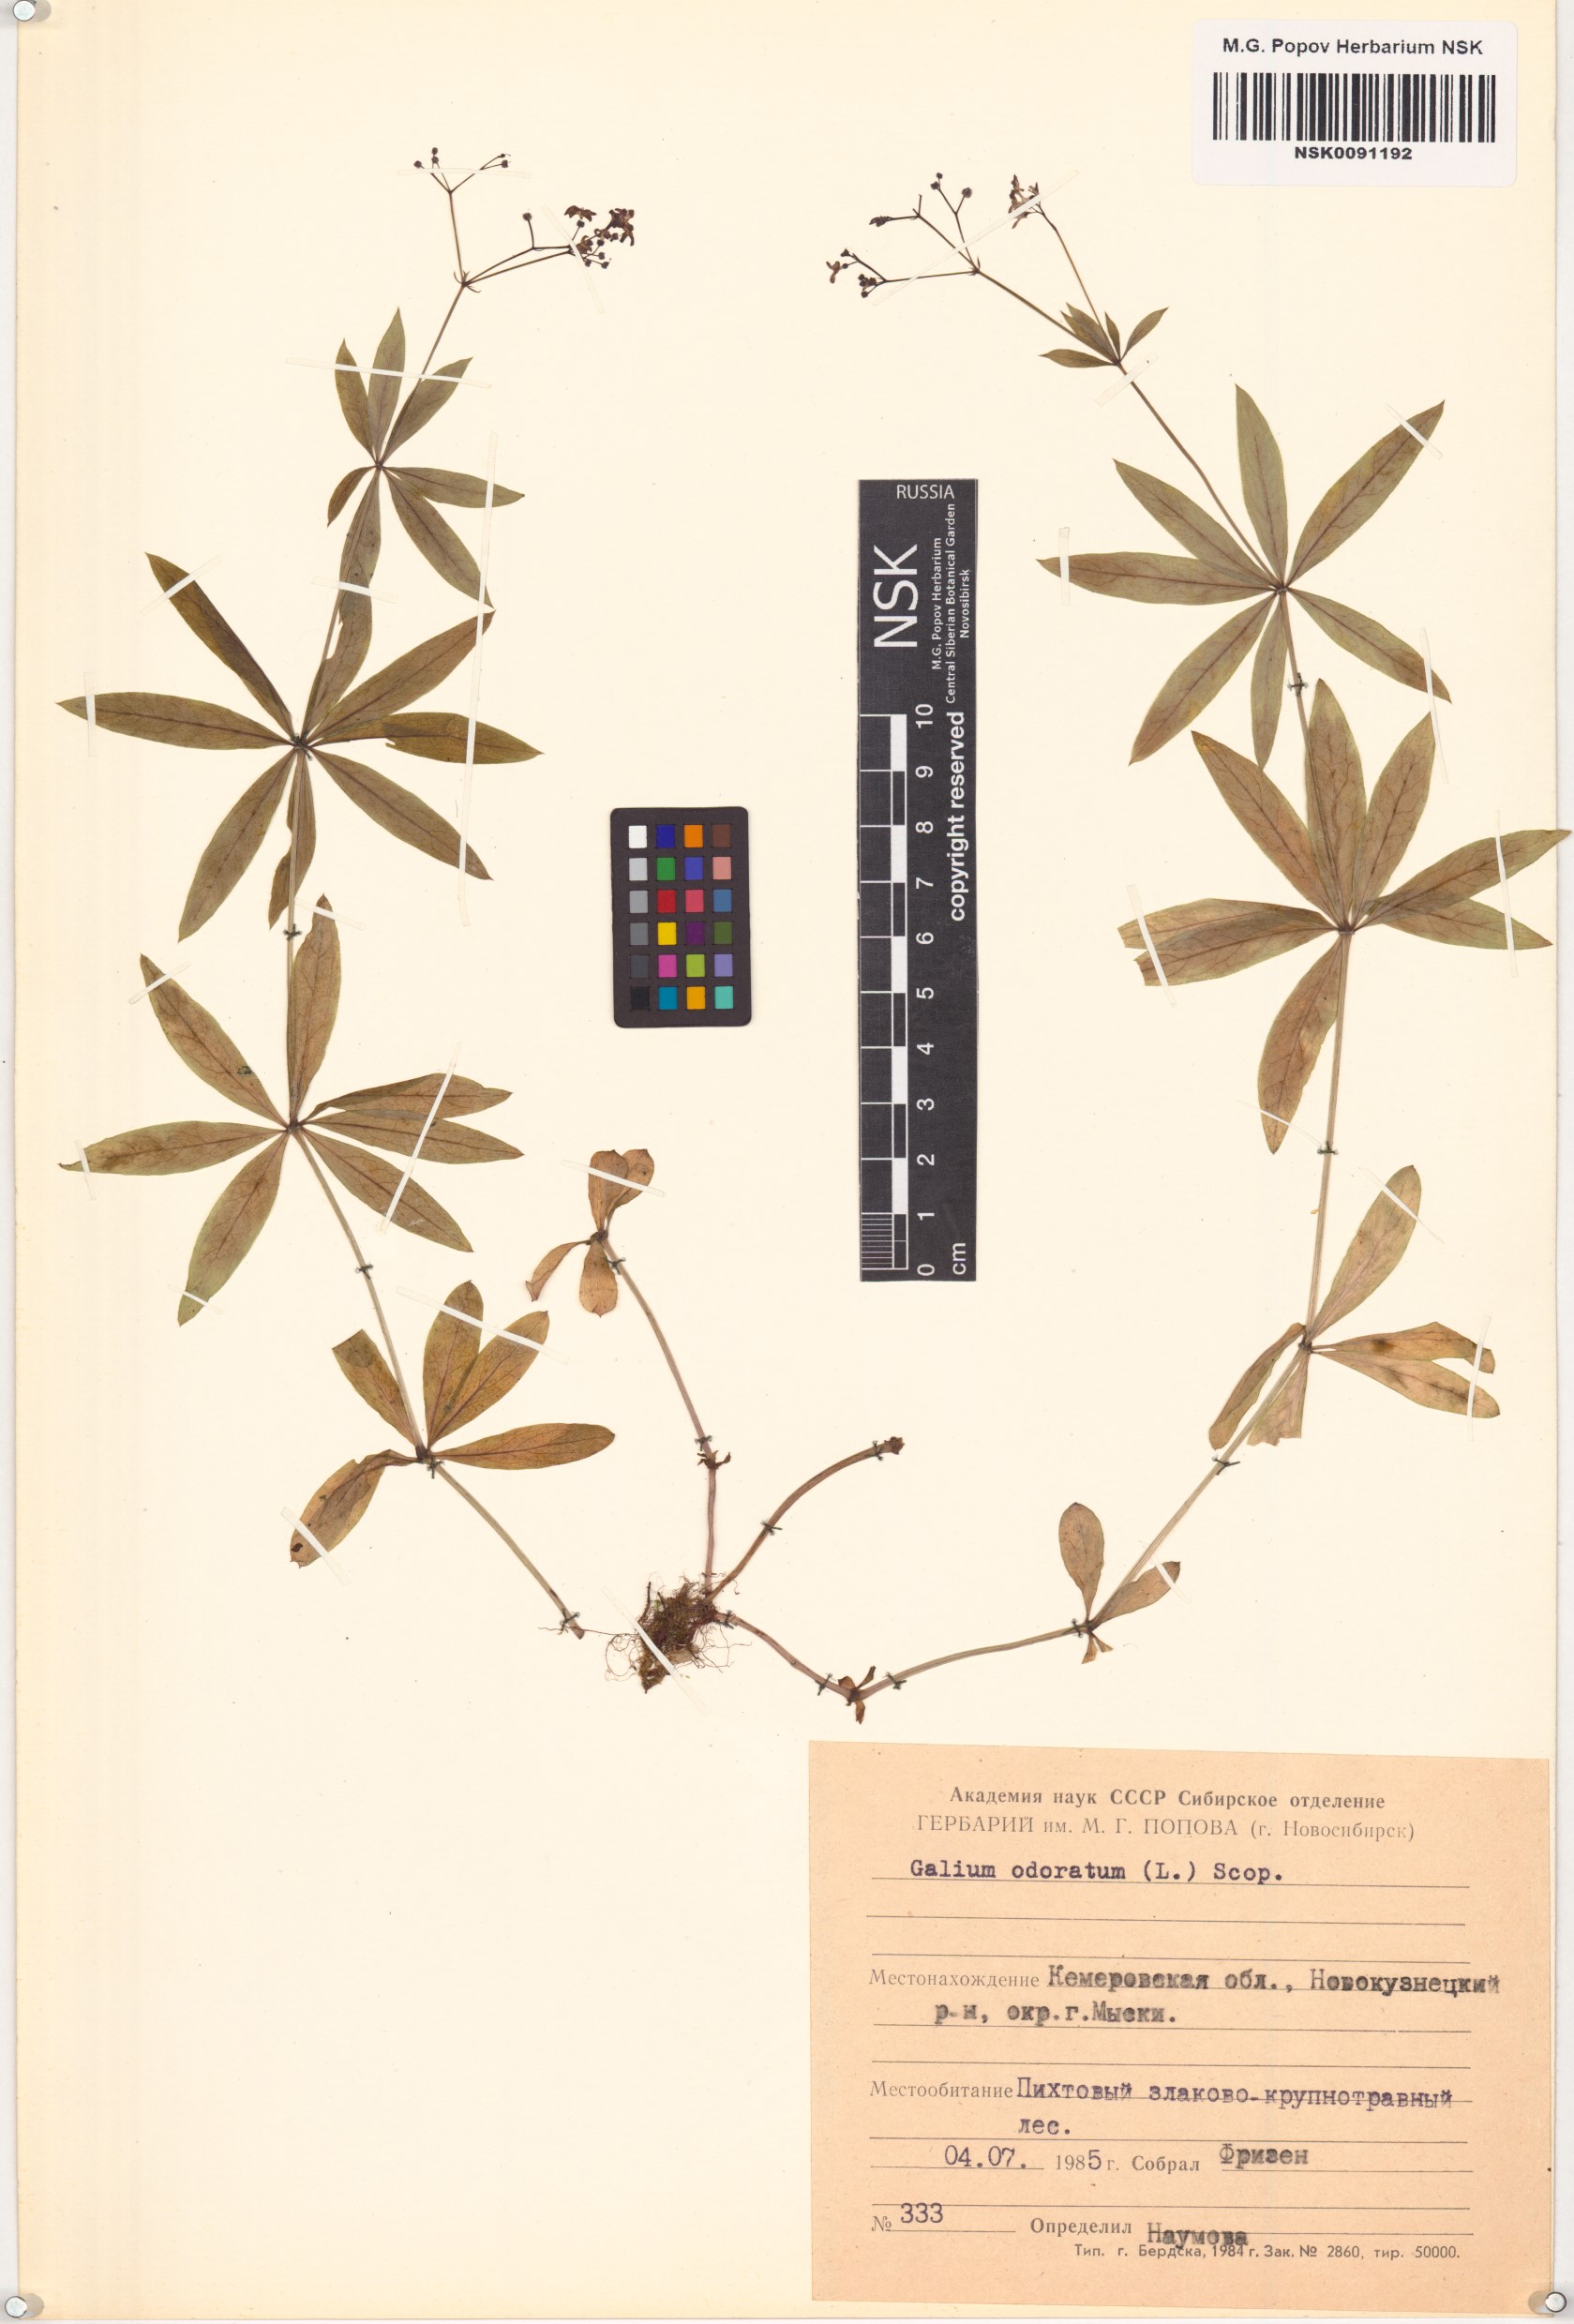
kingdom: Plantae
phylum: Tracheophyta
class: Magnoliopsida
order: Gentianales
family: Rubiaceae
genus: Galium
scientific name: Galium odoratum
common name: Sweet woodruff
